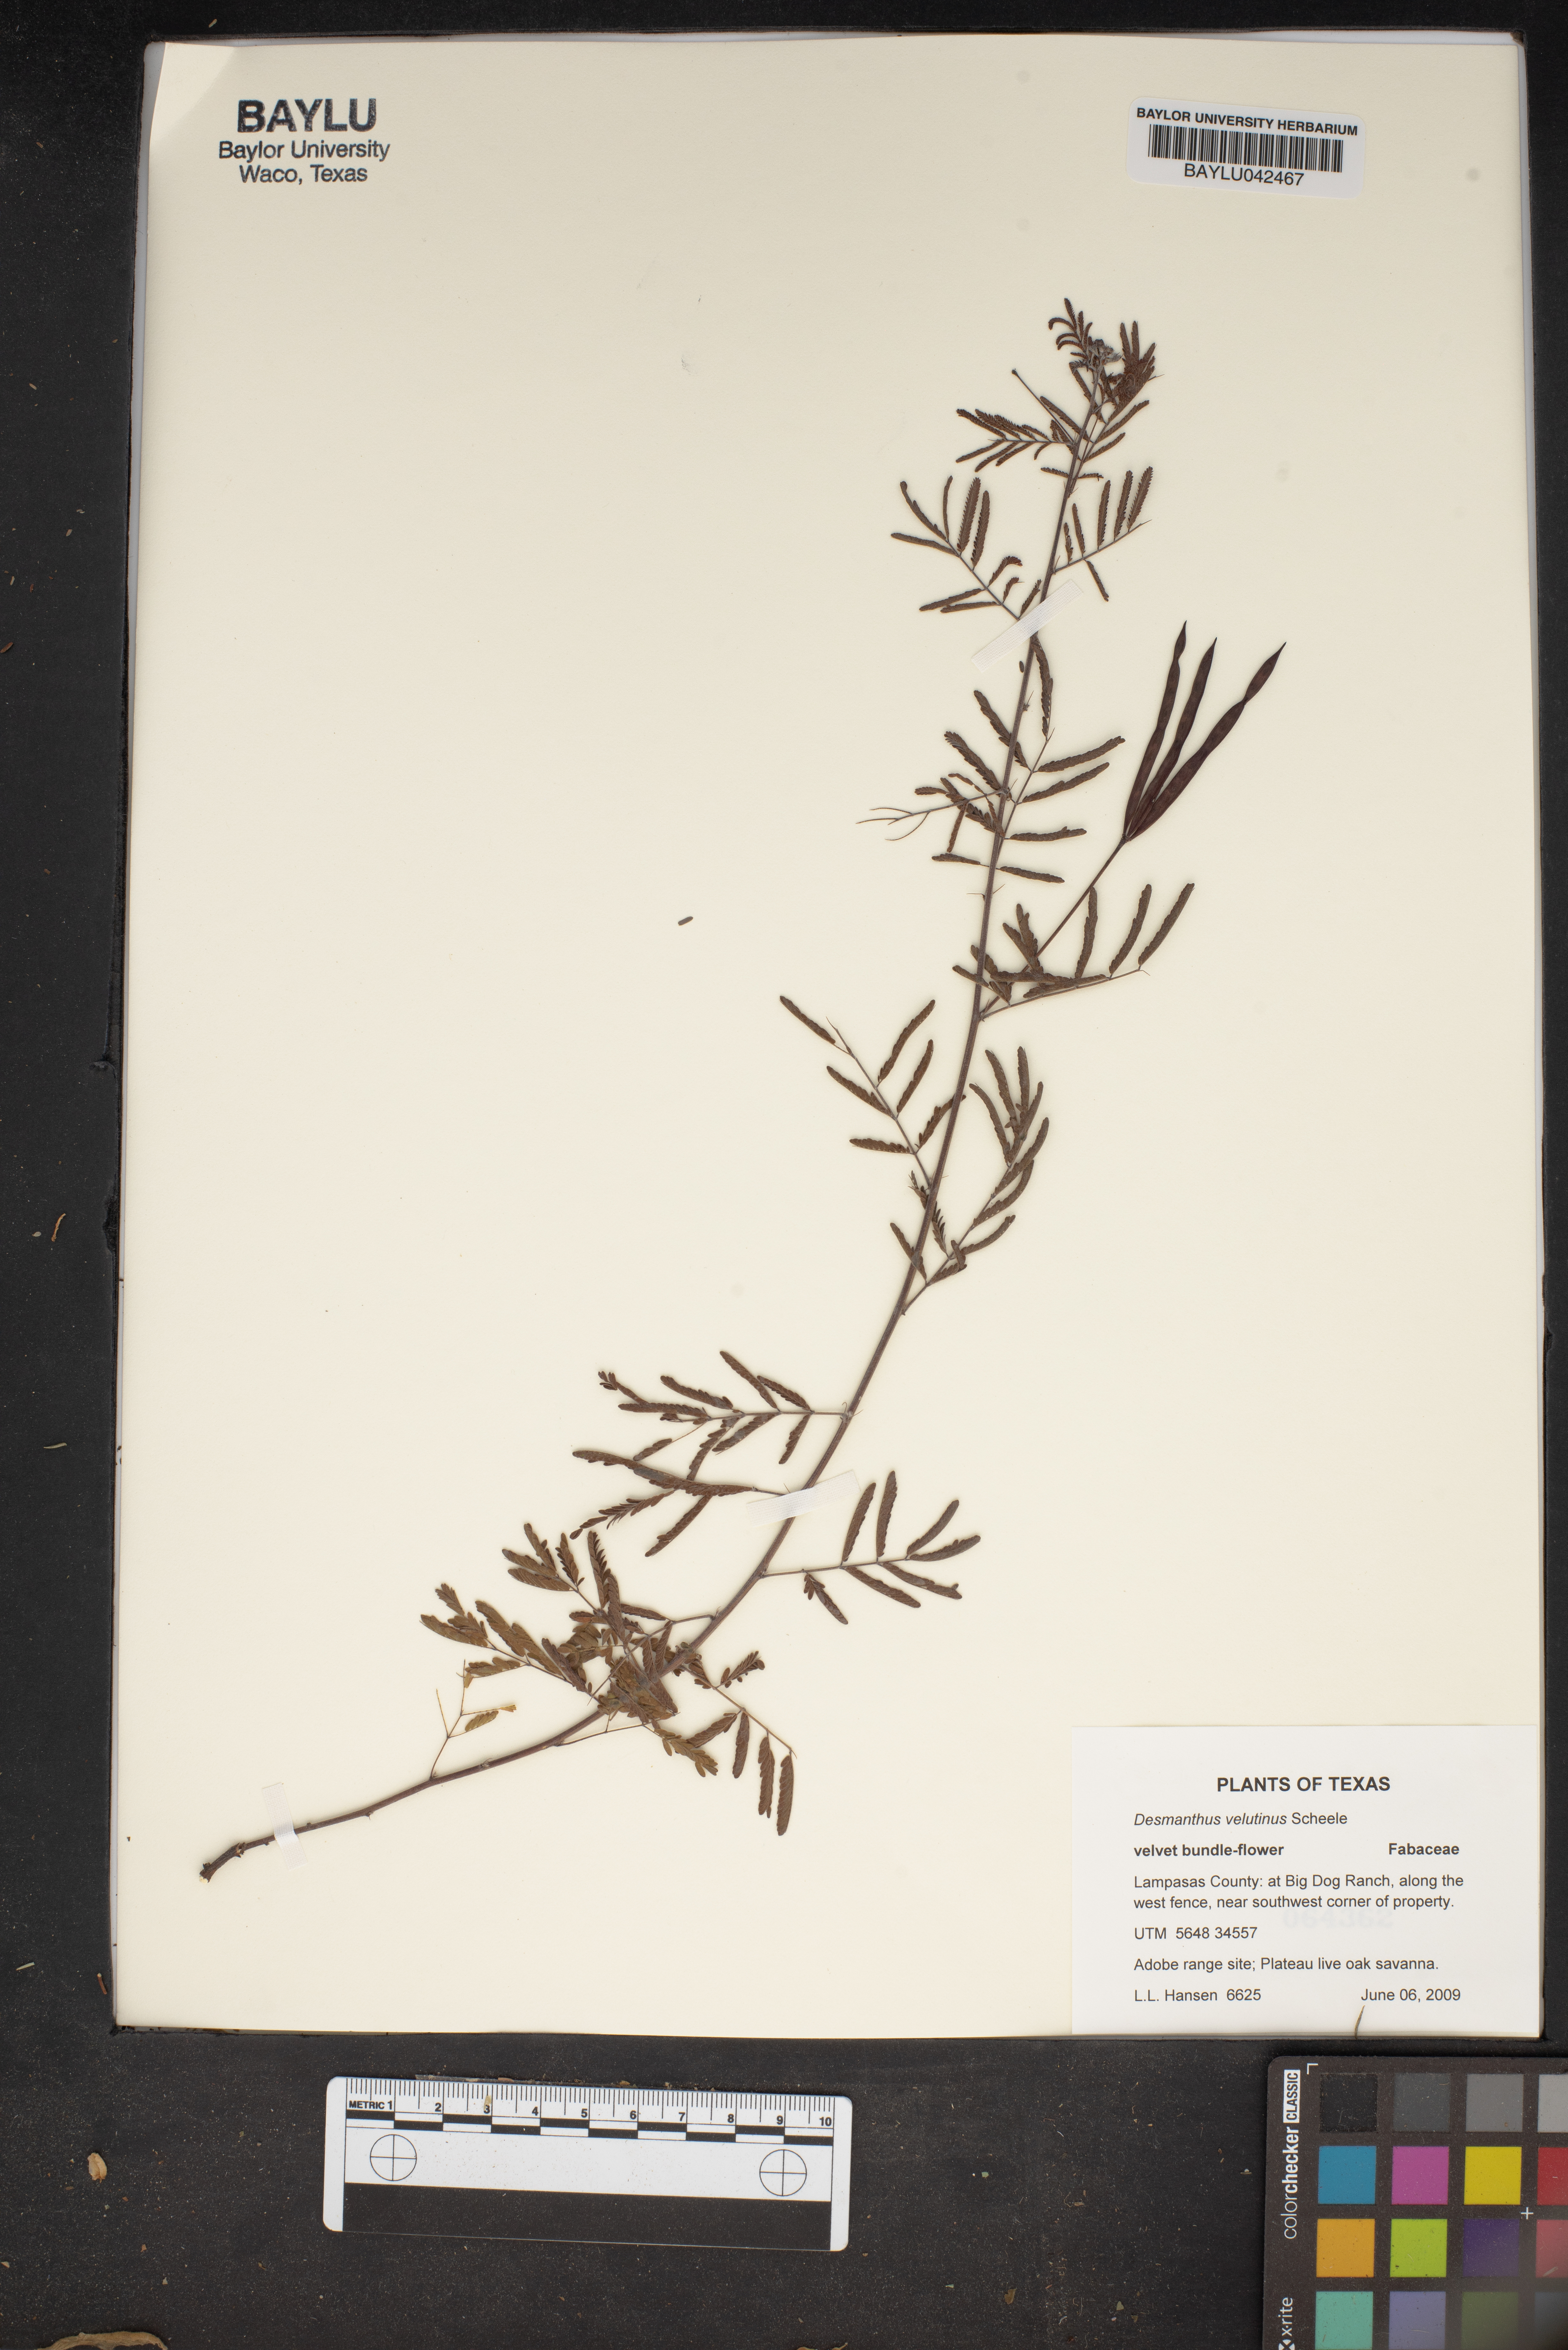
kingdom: Plantae
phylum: Tracheophyta
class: Magnoliopsida
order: Fabales
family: Fabaceae
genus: Desmanthus
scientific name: Desmanthus velutinus
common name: Velvet bundle-flower
